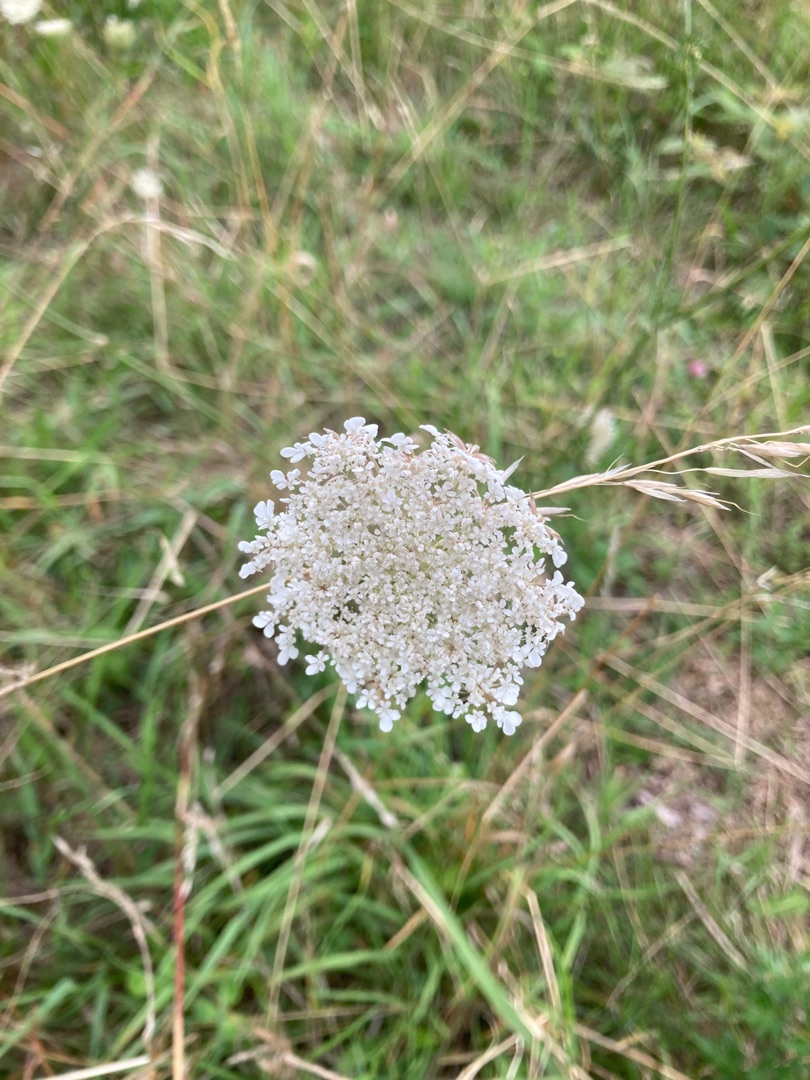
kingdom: Plantae
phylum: Tracheophyta
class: Magnoliopsida
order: Apiales
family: Apiaceae
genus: Daucus
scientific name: Daucus carota
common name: Gulerod
